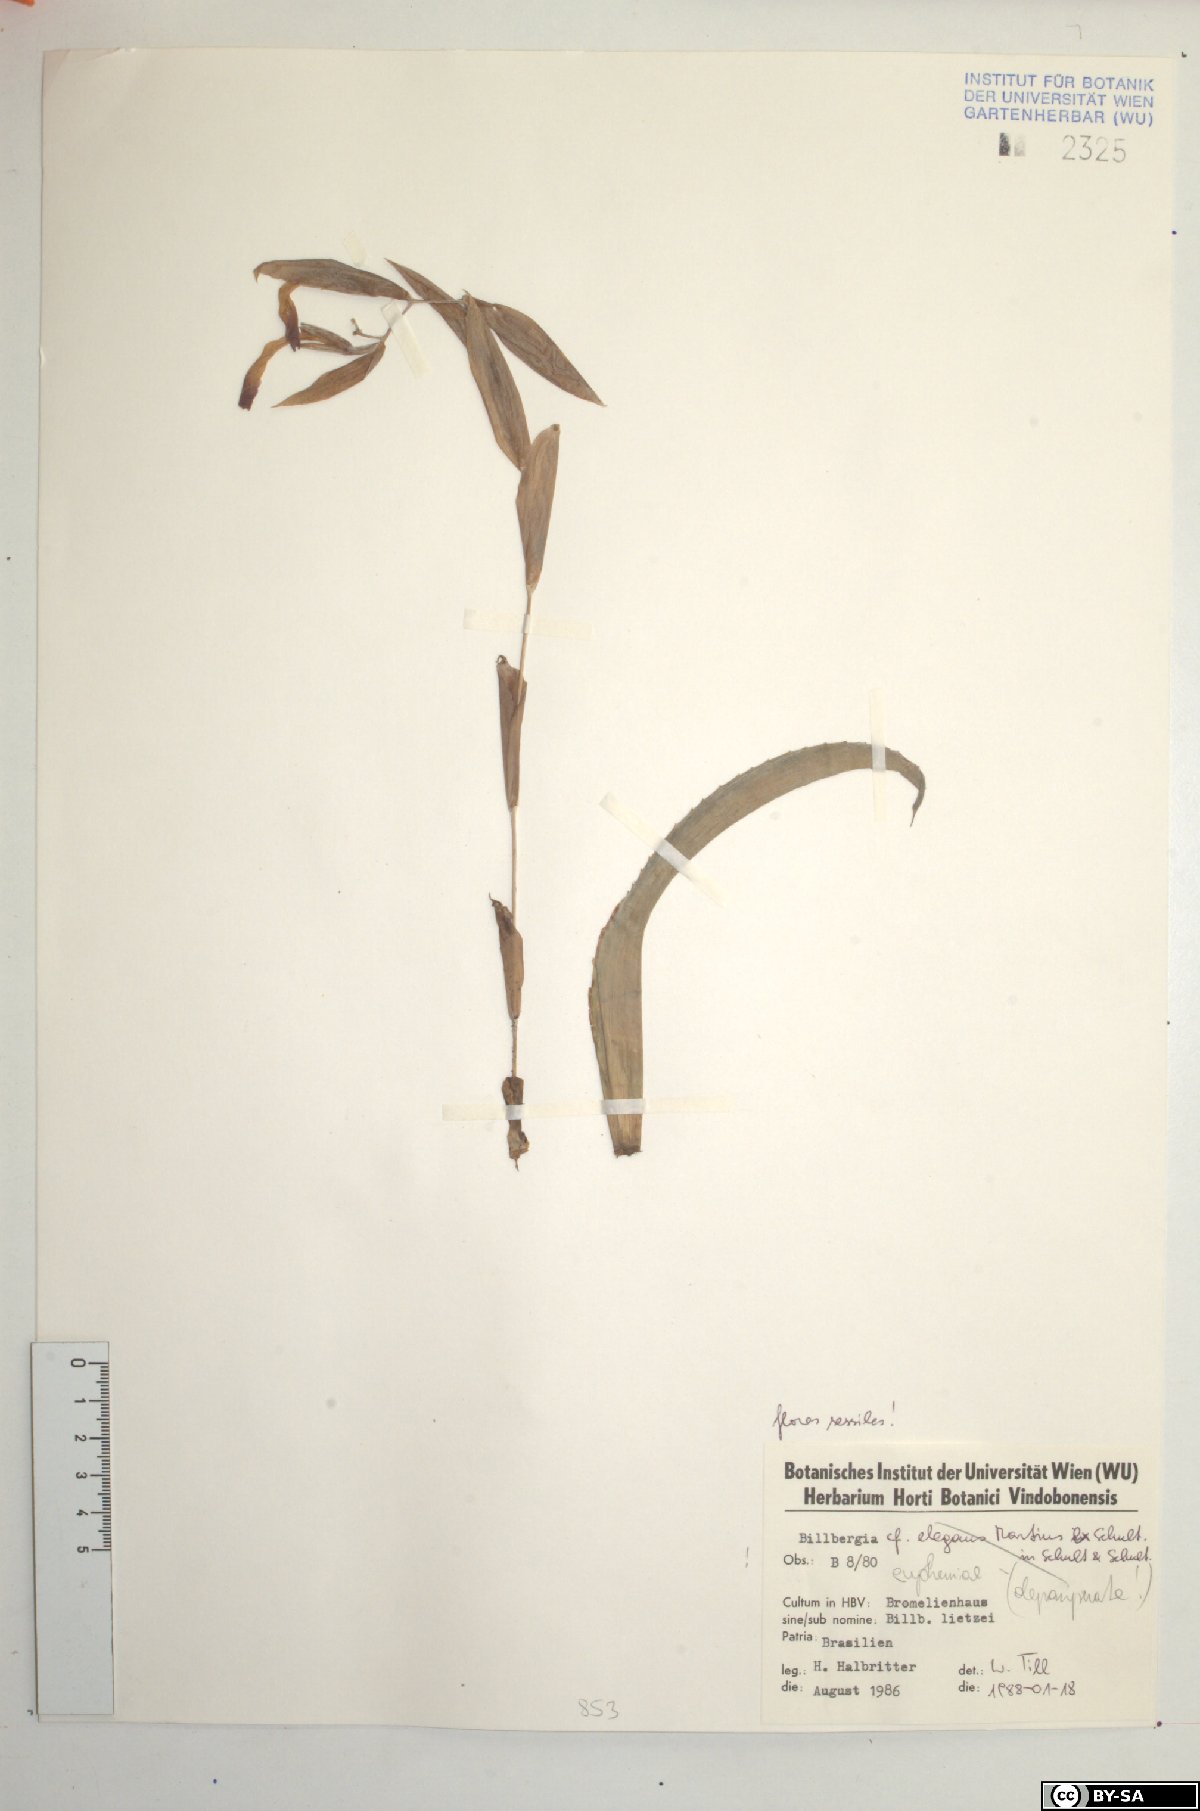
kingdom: Plantae
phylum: Tracheophyta
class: Liliopsida
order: Poales
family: Bromeliaceae
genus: Billbergia
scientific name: Billbergia euphemiae
